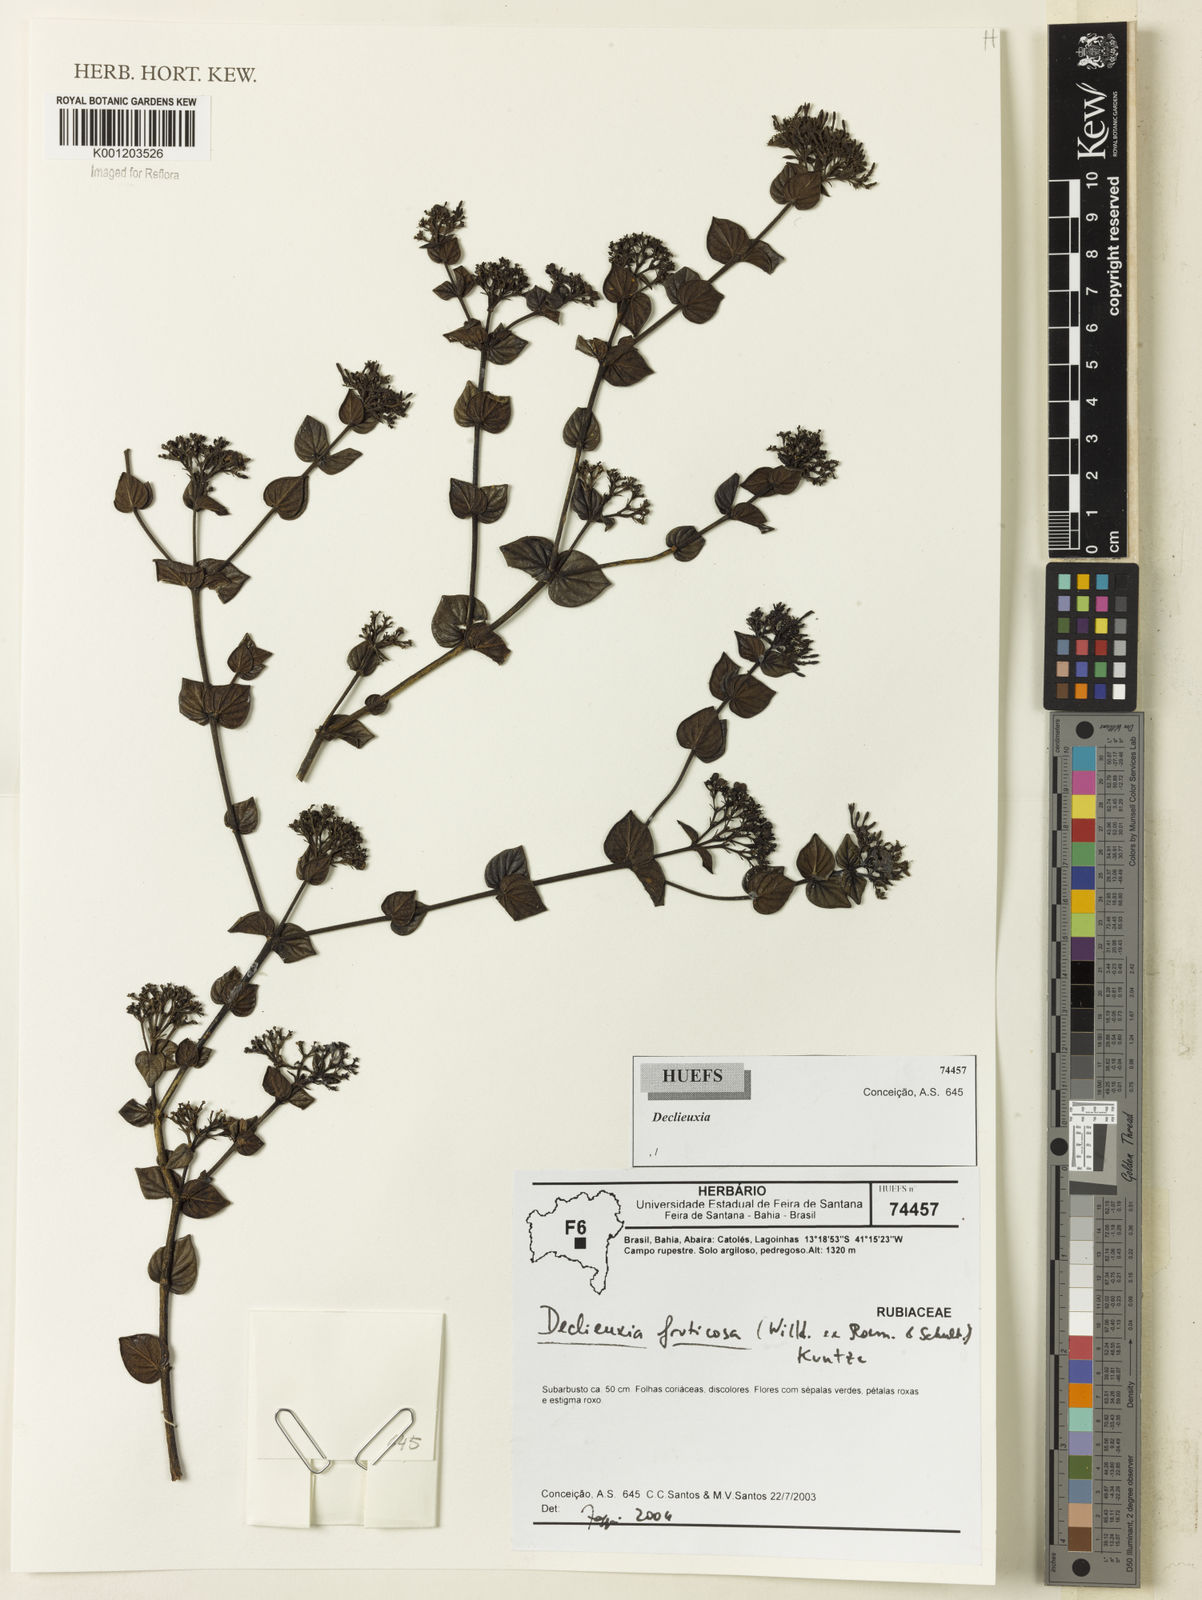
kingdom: Plantae
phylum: Tracheophyta
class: Magnoliopsida
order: Gentianales
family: Rubiaceae
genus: Declieuxia
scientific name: Declieuxia fruticosa
